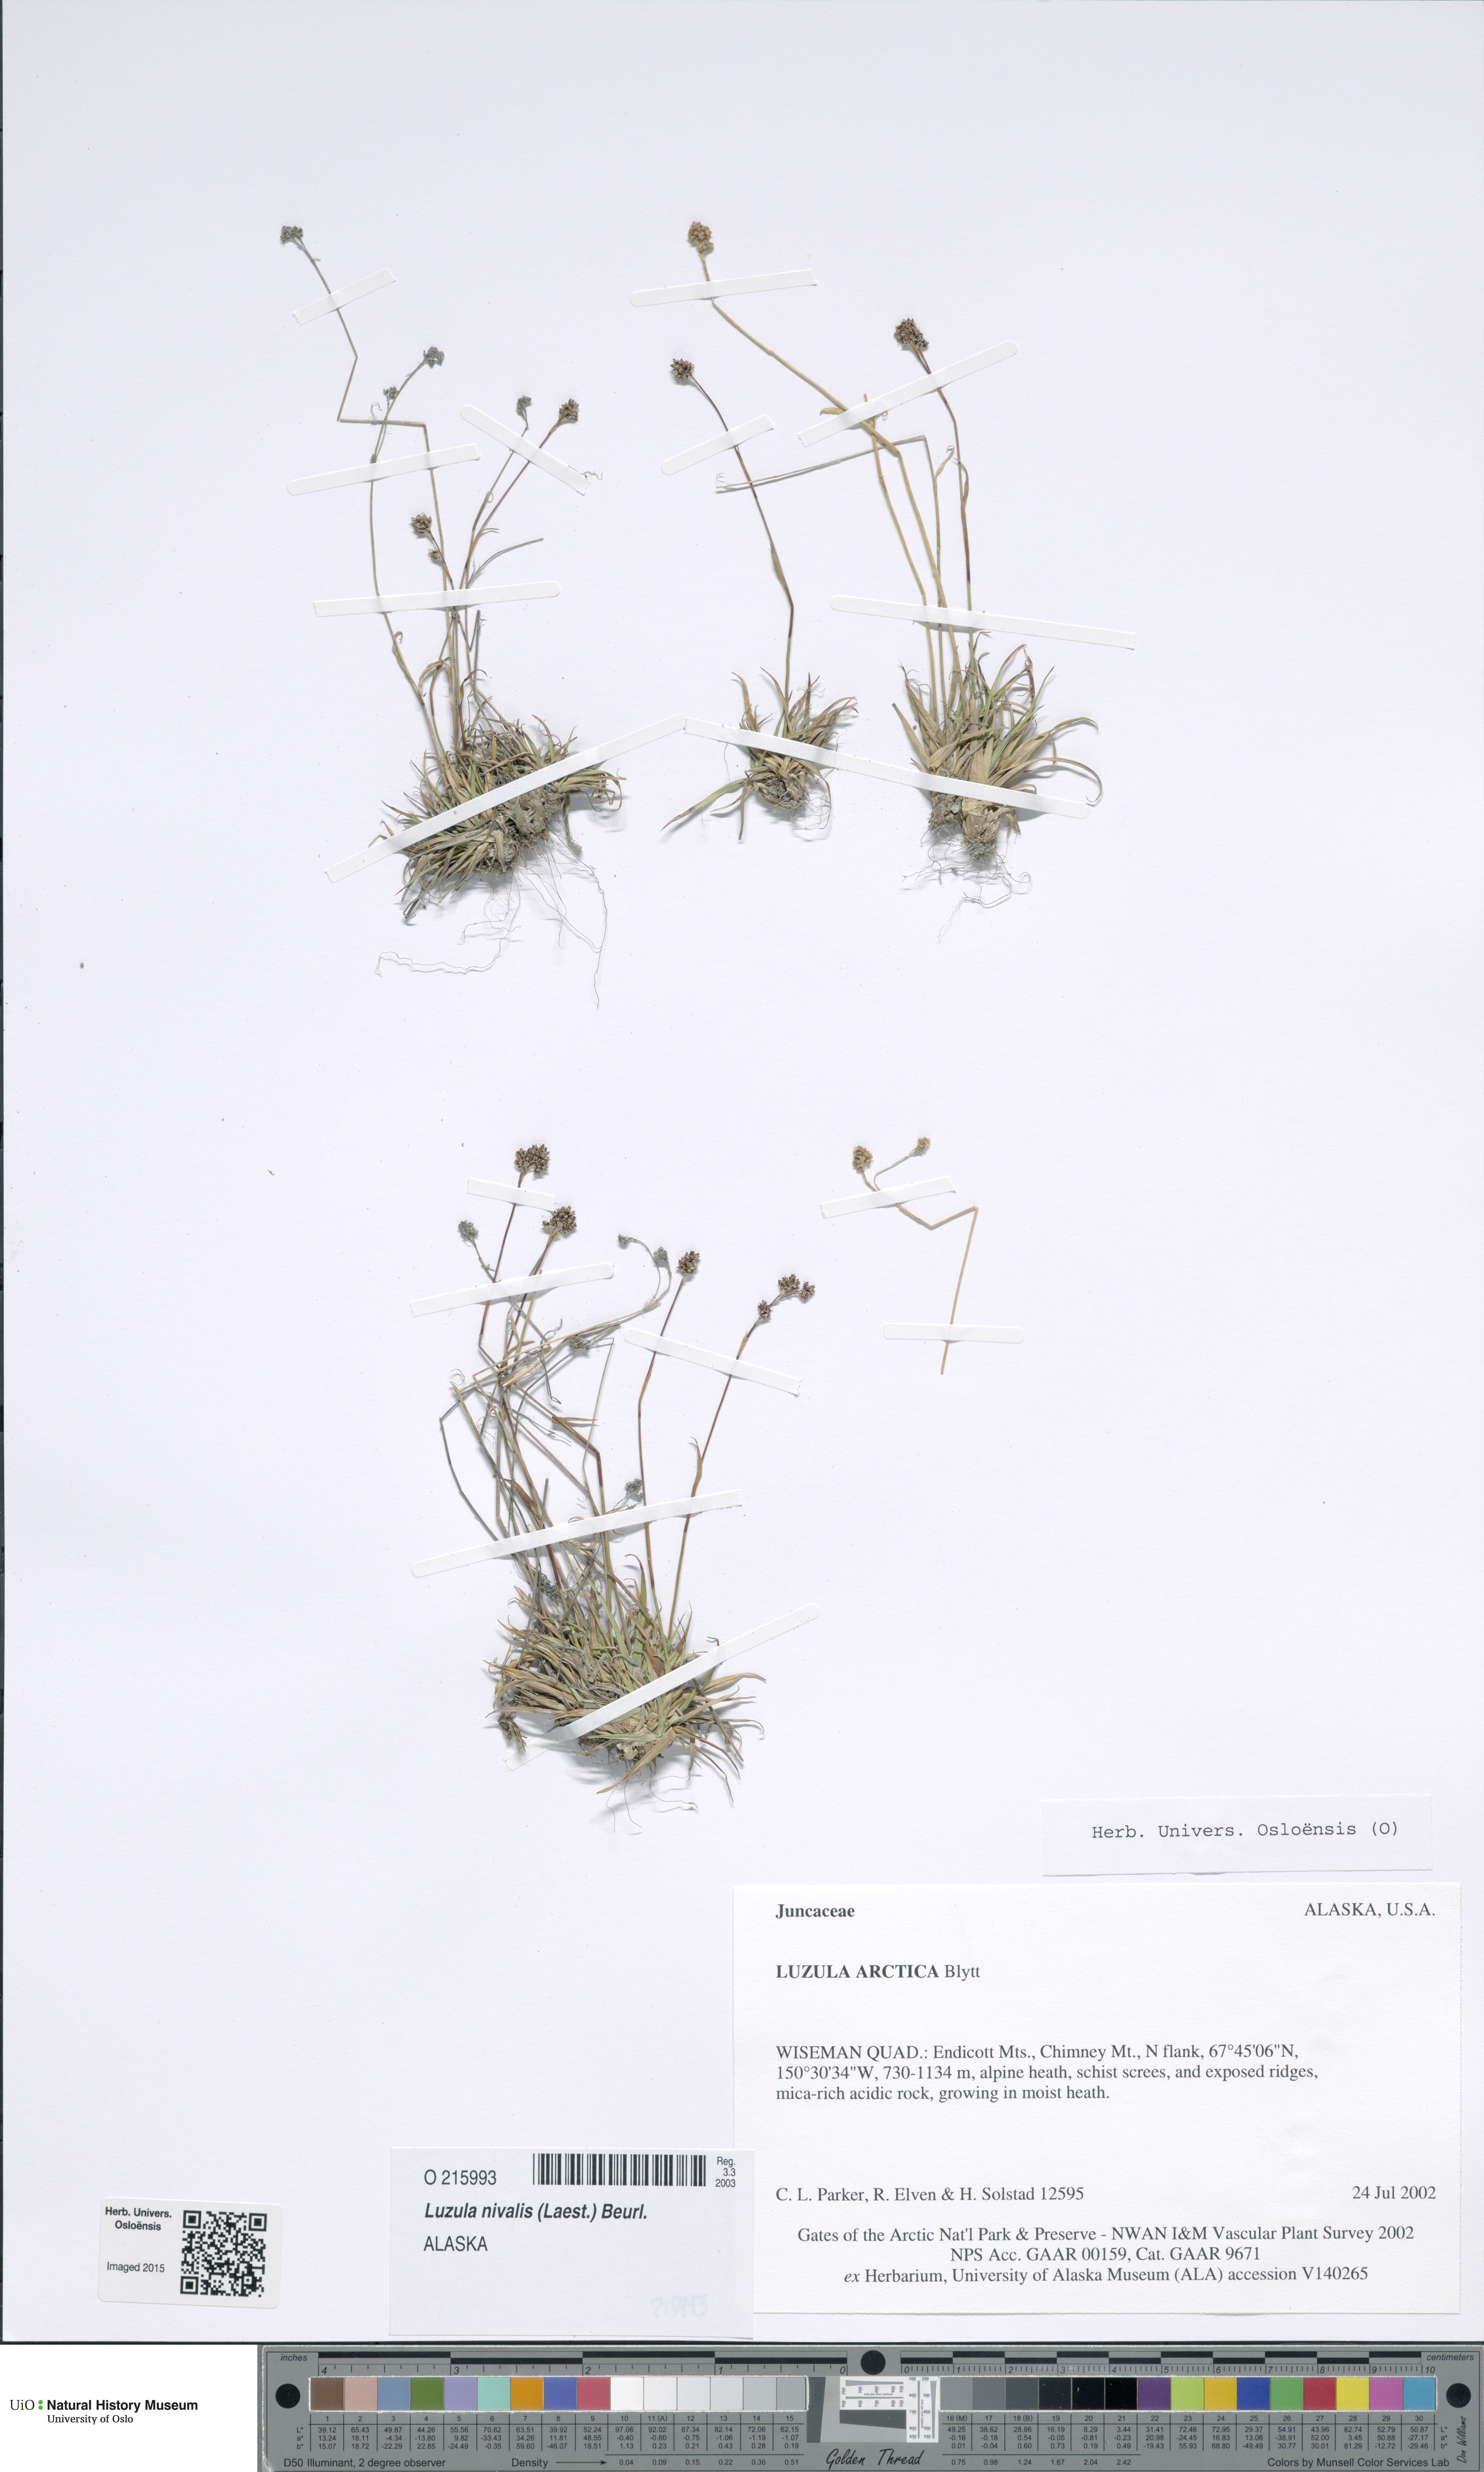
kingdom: Plantae
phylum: Tracheophyta
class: Liliopsida
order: Poales
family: Juncaceae
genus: Luzula
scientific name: Luzula nivalis
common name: Arctic woodrush
